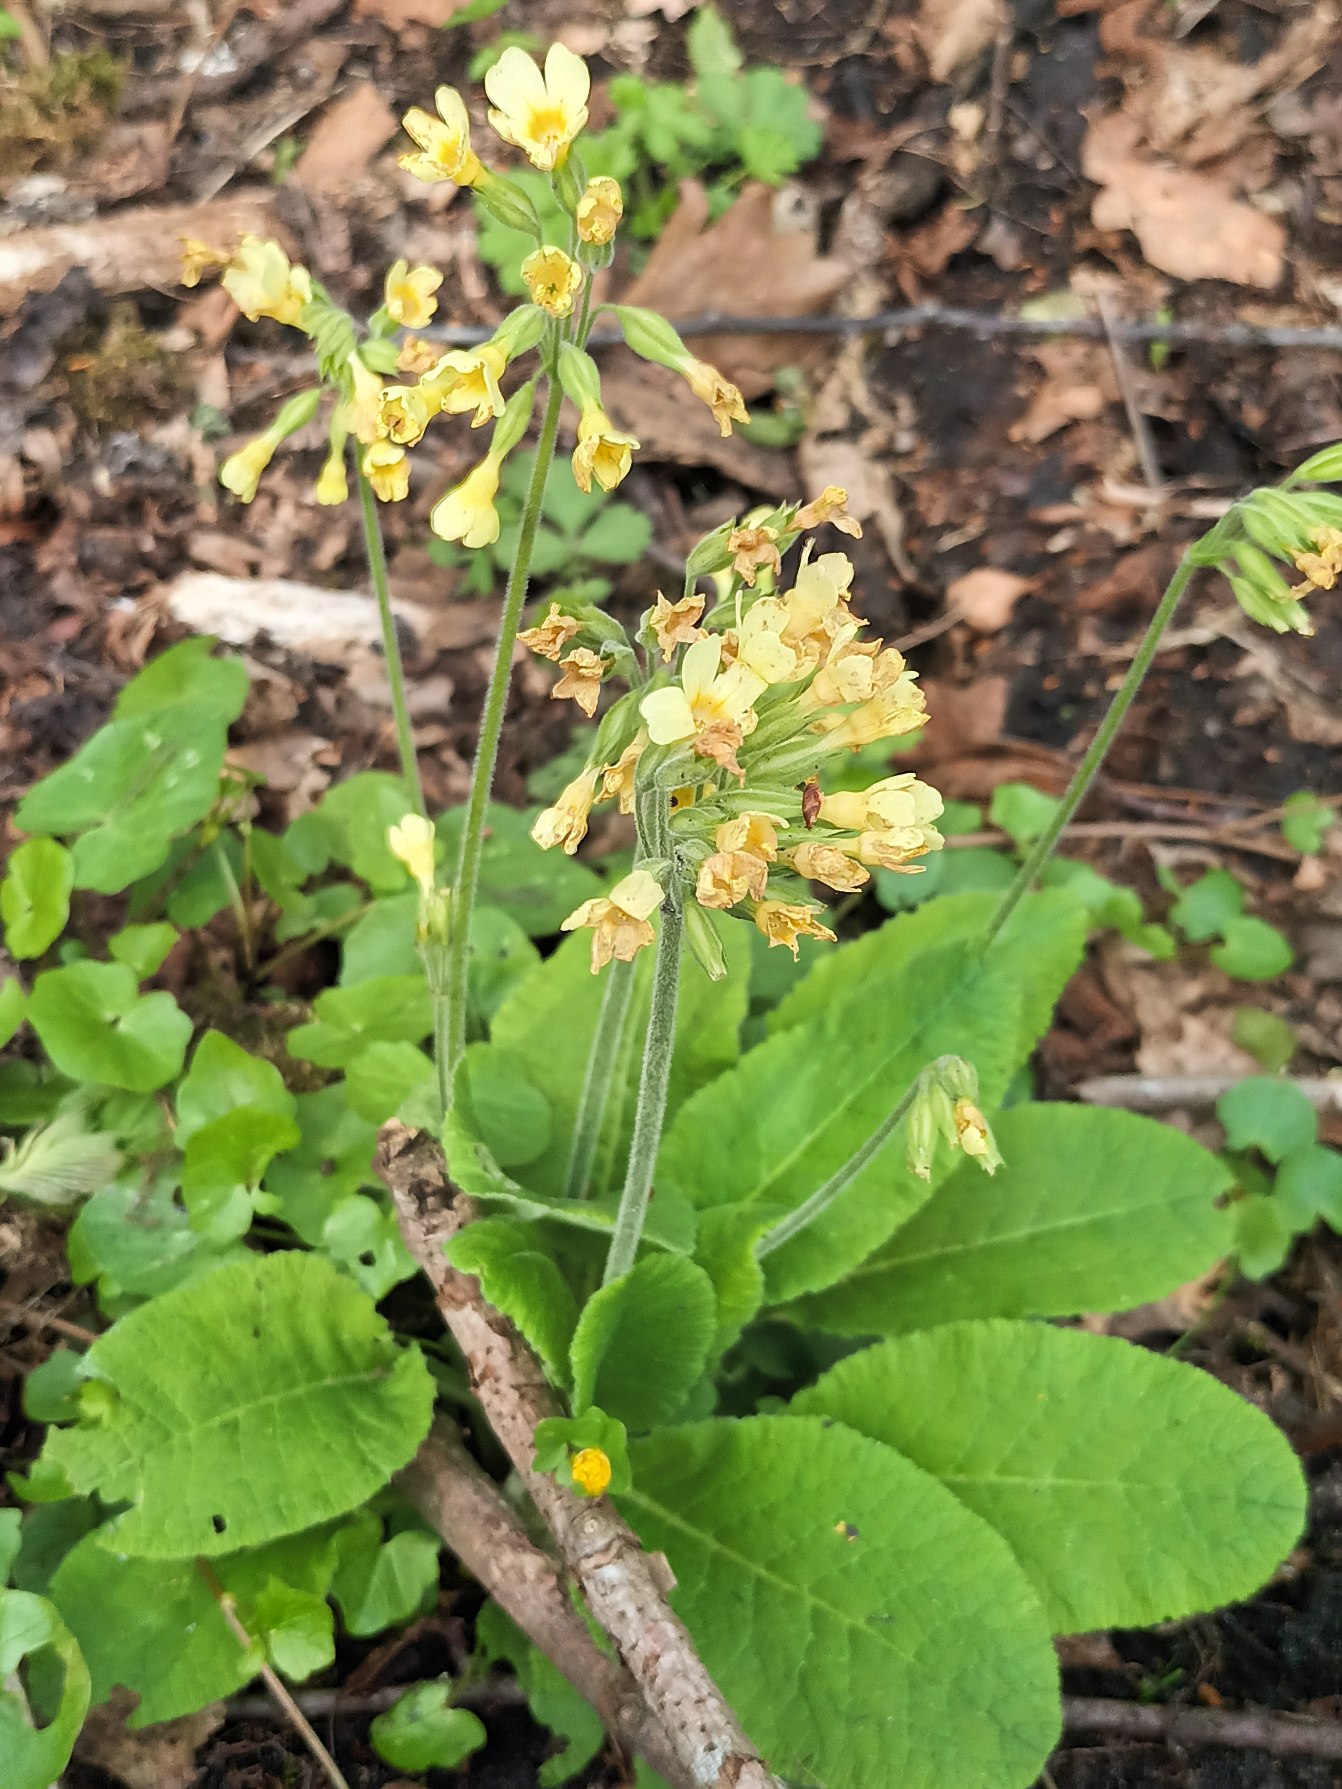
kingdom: Plantae
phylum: Tracheophyta
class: Magnoliopsida
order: Ericales
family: Primulaceae
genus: Primula
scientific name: Primula elatior
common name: Fladkravet kodriver
